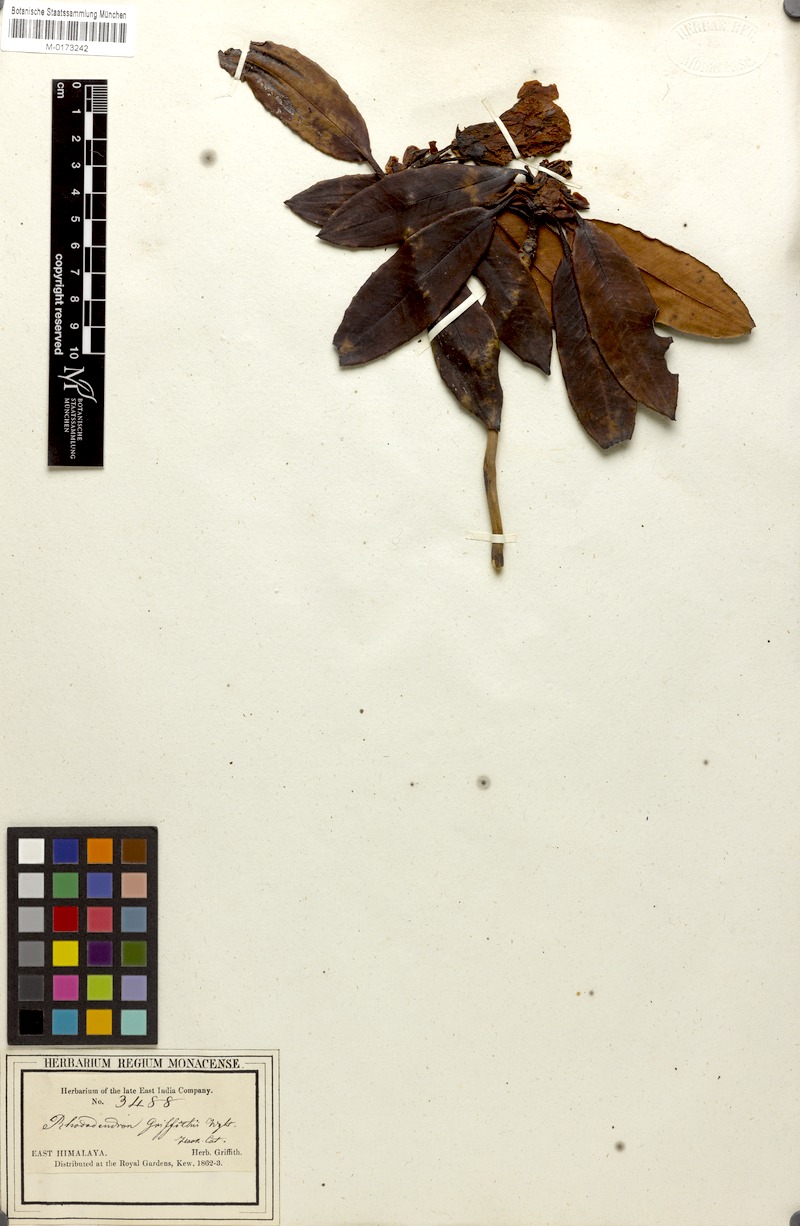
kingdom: Plantae
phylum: Tracheophyta
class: Magnoliopsida
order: Ericales
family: Ericaceae
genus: Rhododendron
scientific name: Rhododendron griffithianum
